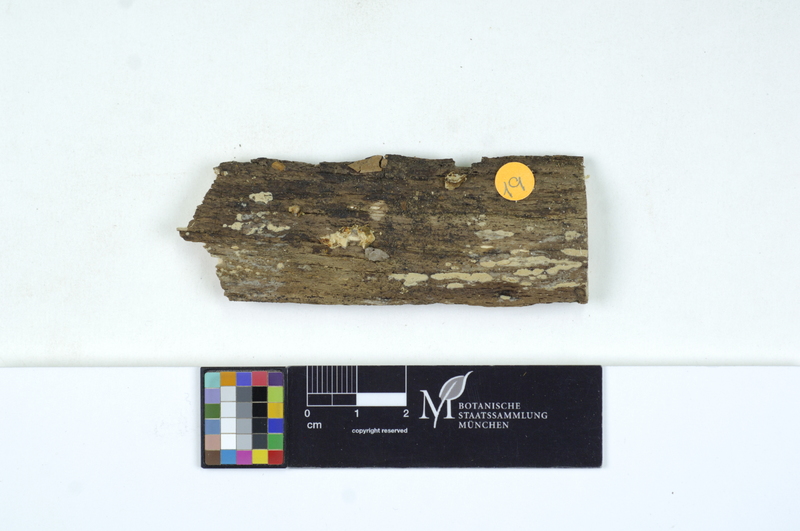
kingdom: Plantae
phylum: Tracheophyta
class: Magnoliopsida
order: Fagales
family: Fagaceae
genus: Fagus
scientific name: Fagus sylvatica
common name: Beech
